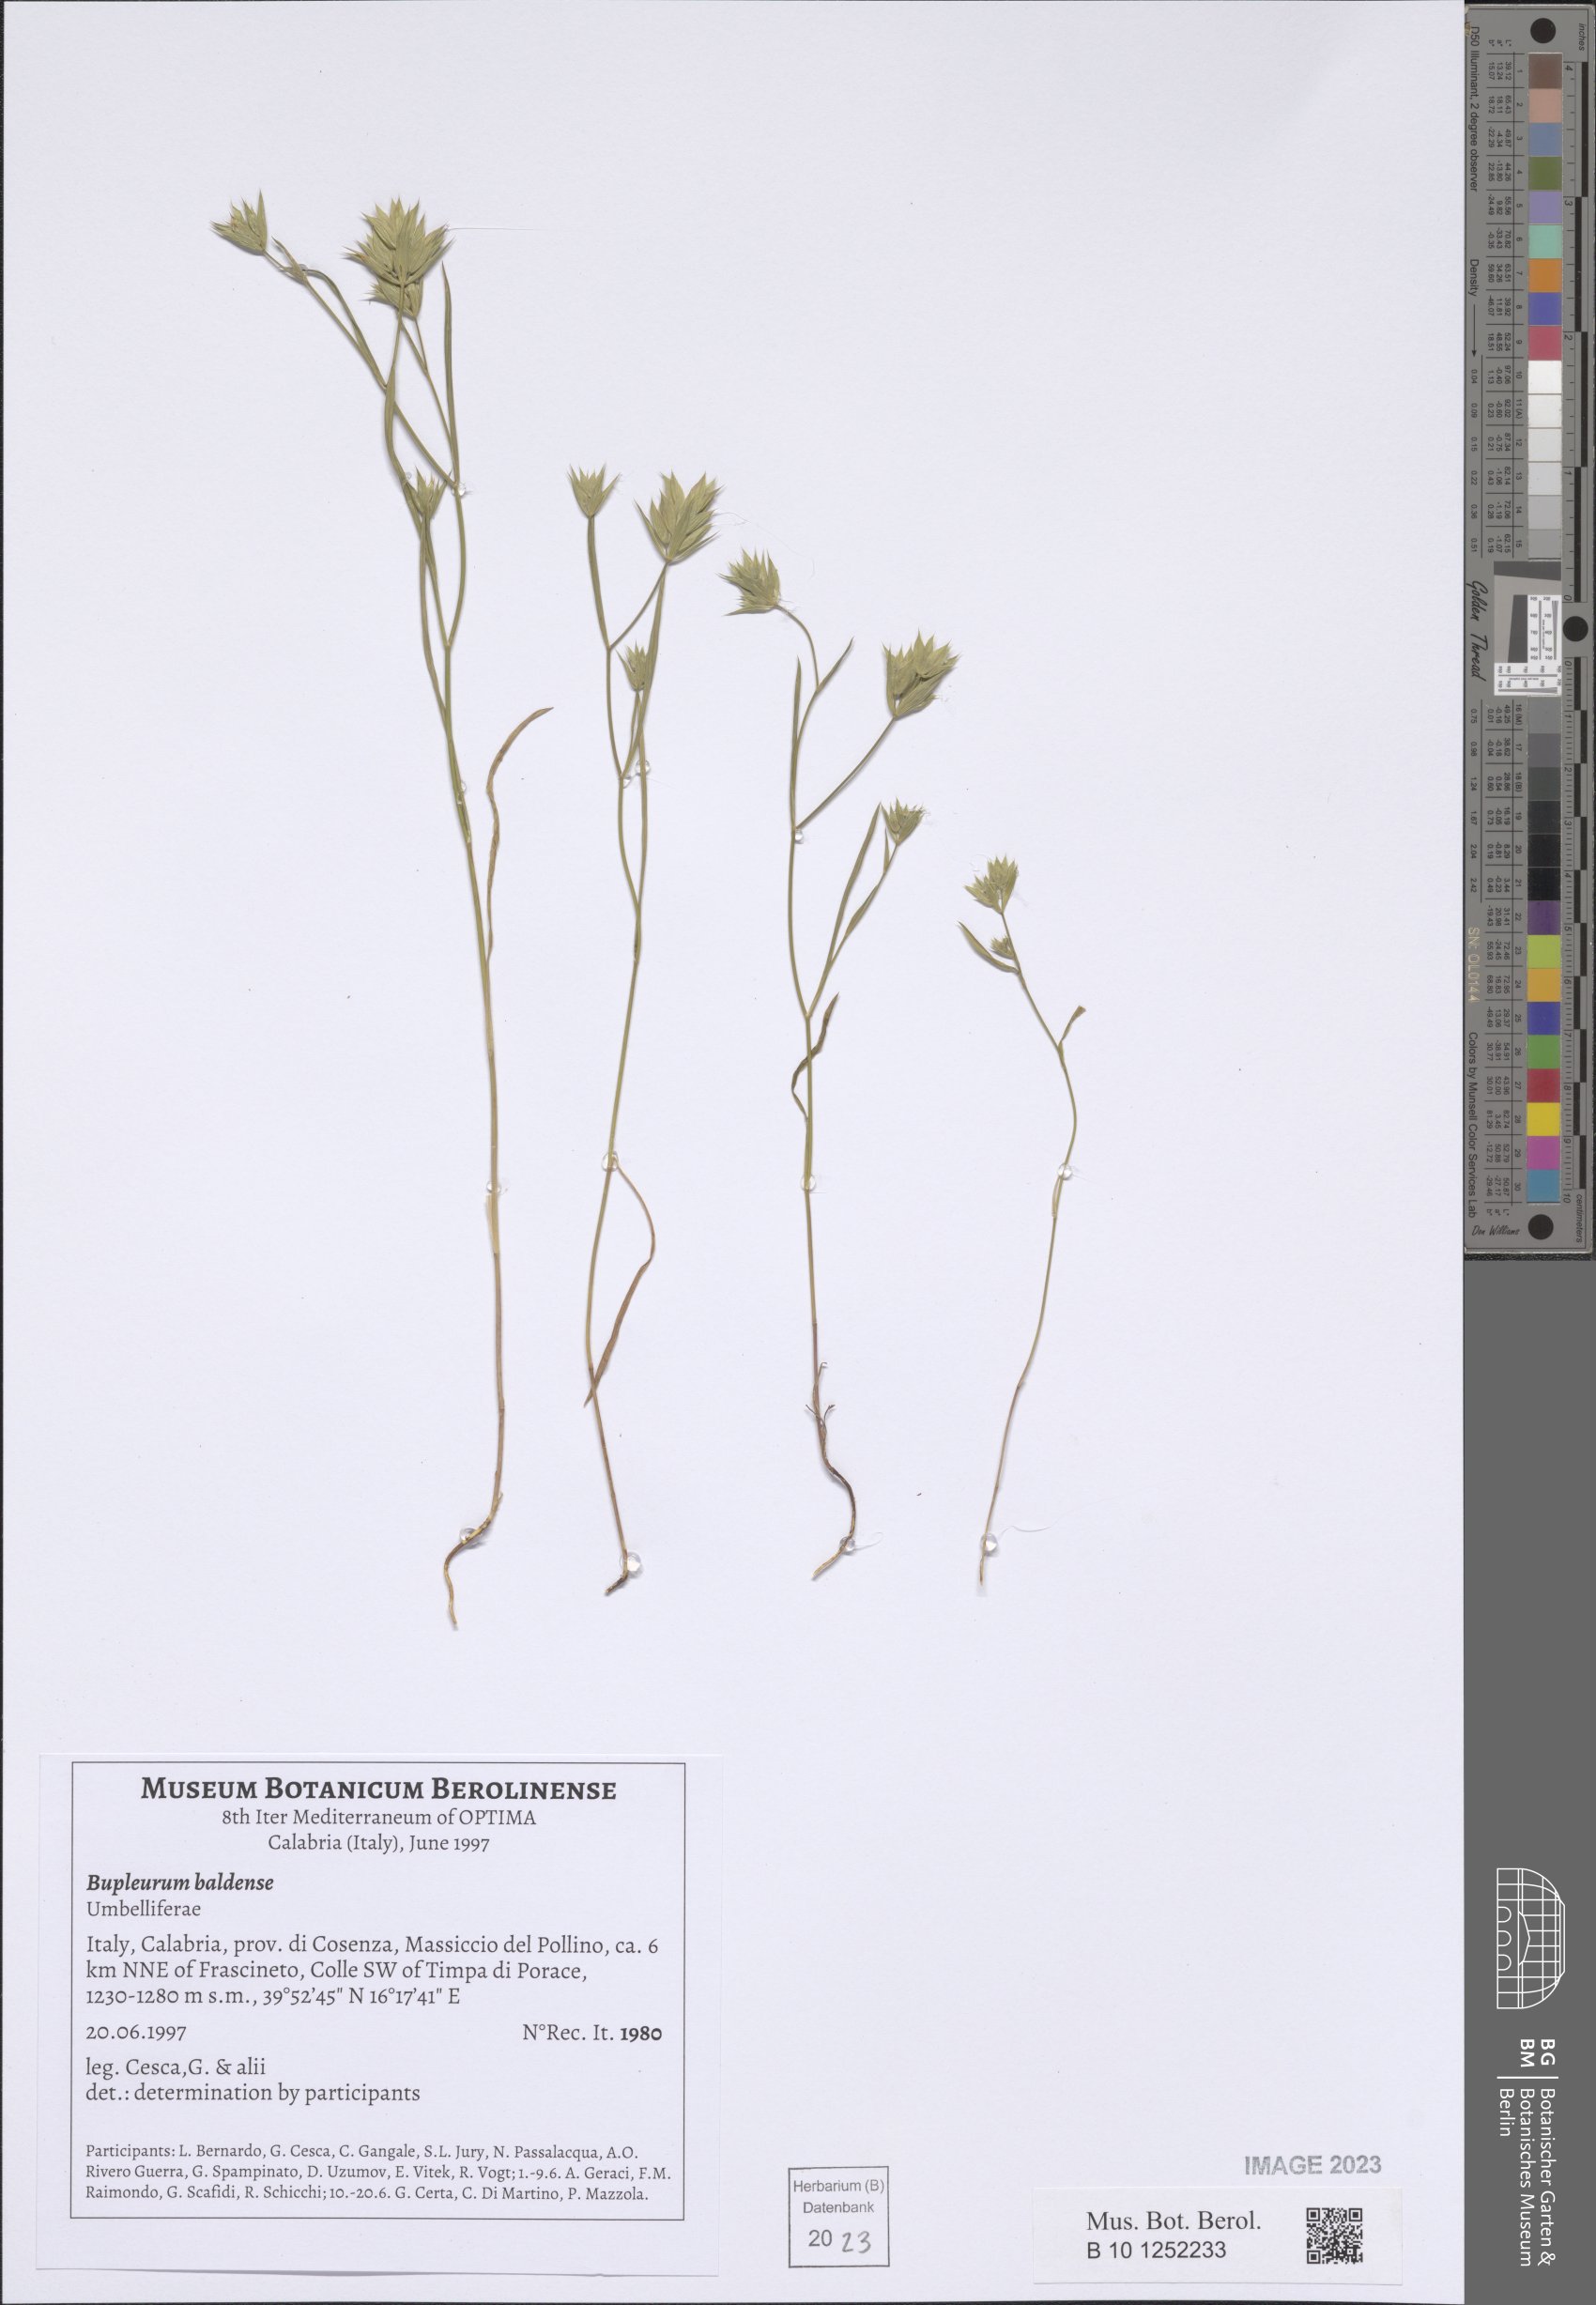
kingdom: Plantae
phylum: Tracheophyta
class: Magnoliopsida
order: Apiales
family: Apiaceae
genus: Bupleurum
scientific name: Bupleurum baldense
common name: Small hare's-ear
